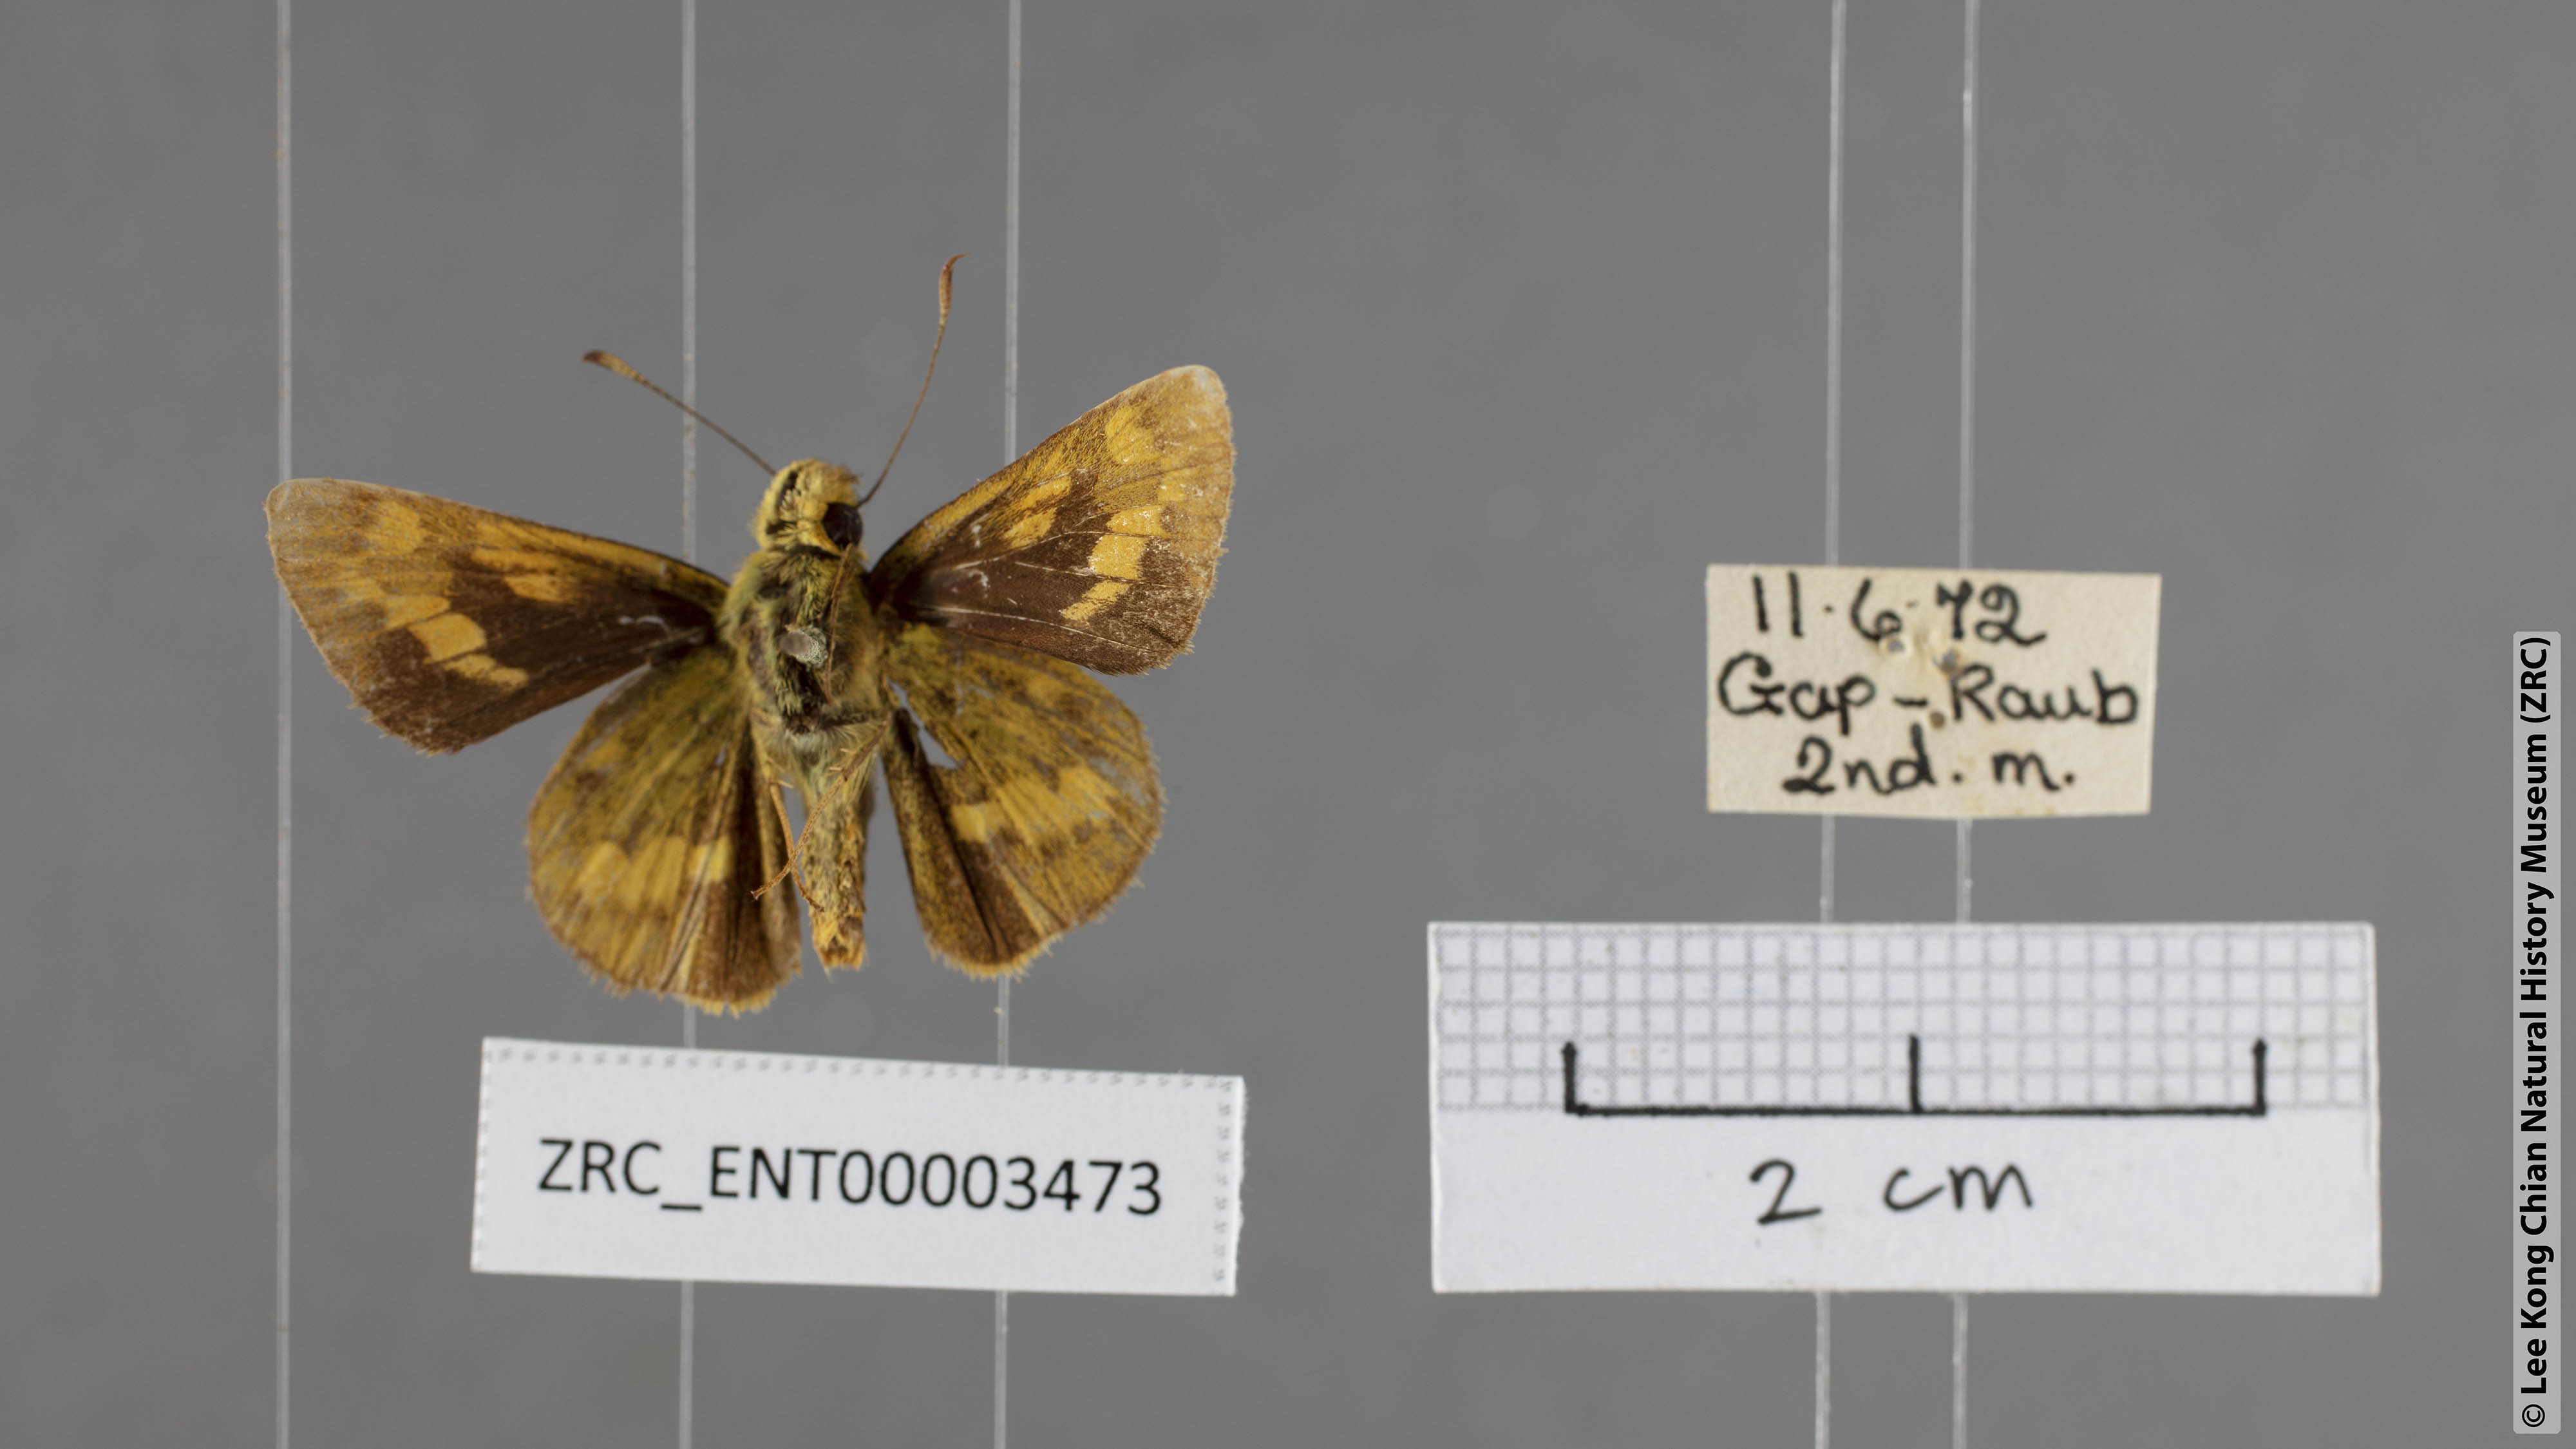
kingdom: Animalia
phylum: Arthropoda
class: Insecta
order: Lepidoptera
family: Hesperiidae
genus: Potanthus
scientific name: Potanthus lydia
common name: Lydia dart
